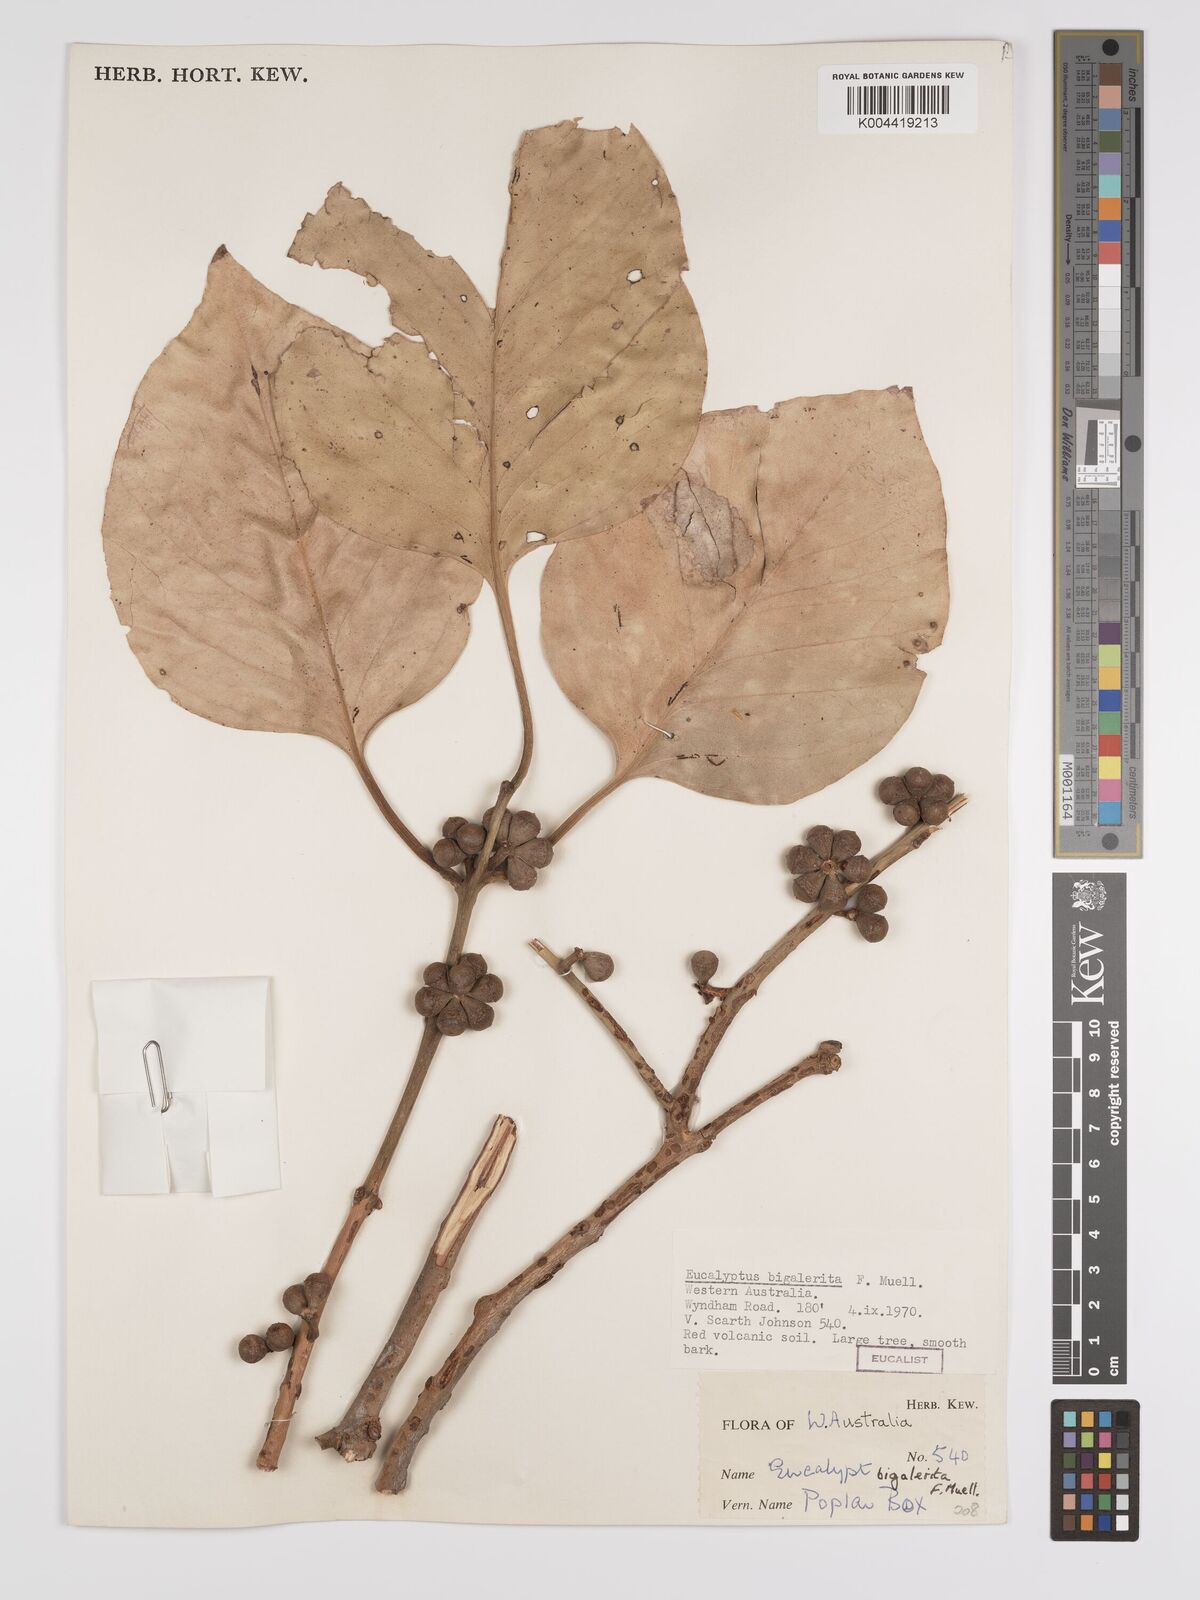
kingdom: Plantae
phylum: Tracheophyta
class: Magnoliopsida
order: Myrtales
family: Myrtaceae
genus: Eucalyptus
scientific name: Eucalyptus bigalerita
